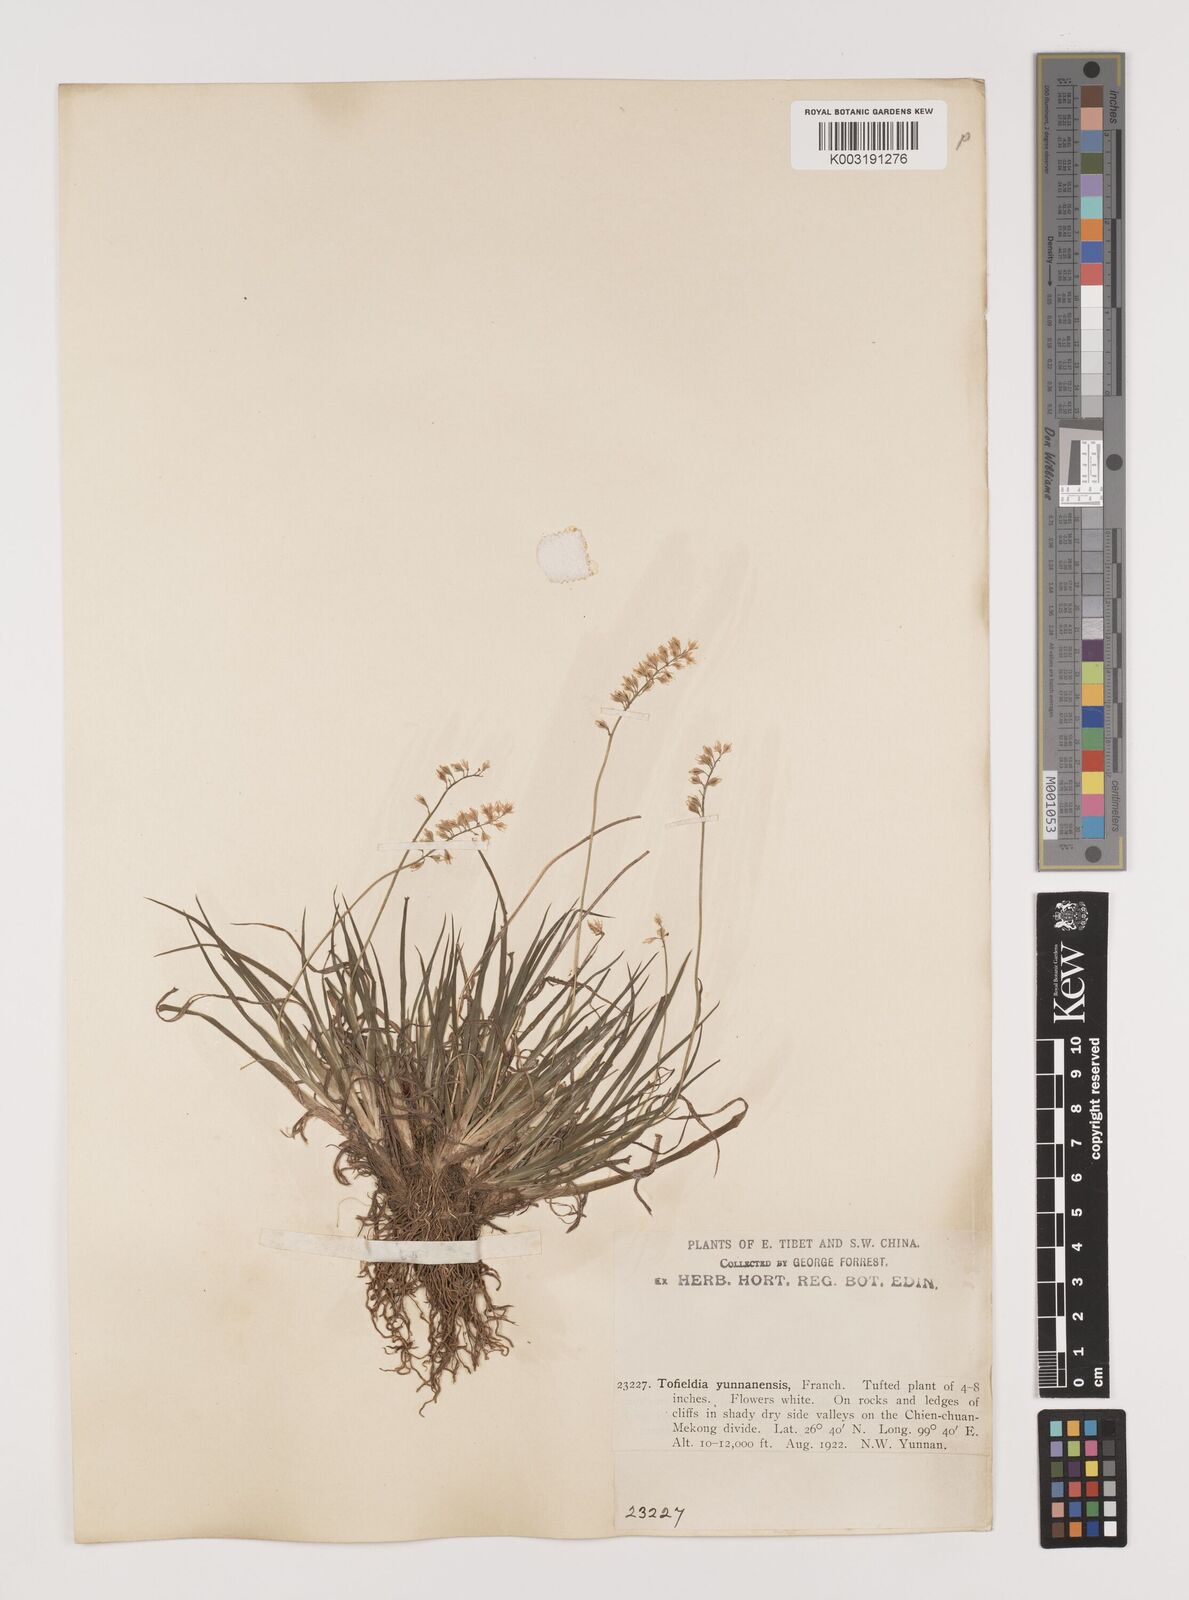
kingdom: Plantae
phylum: Tracheophyta
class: Liliopsida
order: Alismatales
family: Tofieldiaceae
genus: Tofieldia
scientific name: Tofieldia divergens
